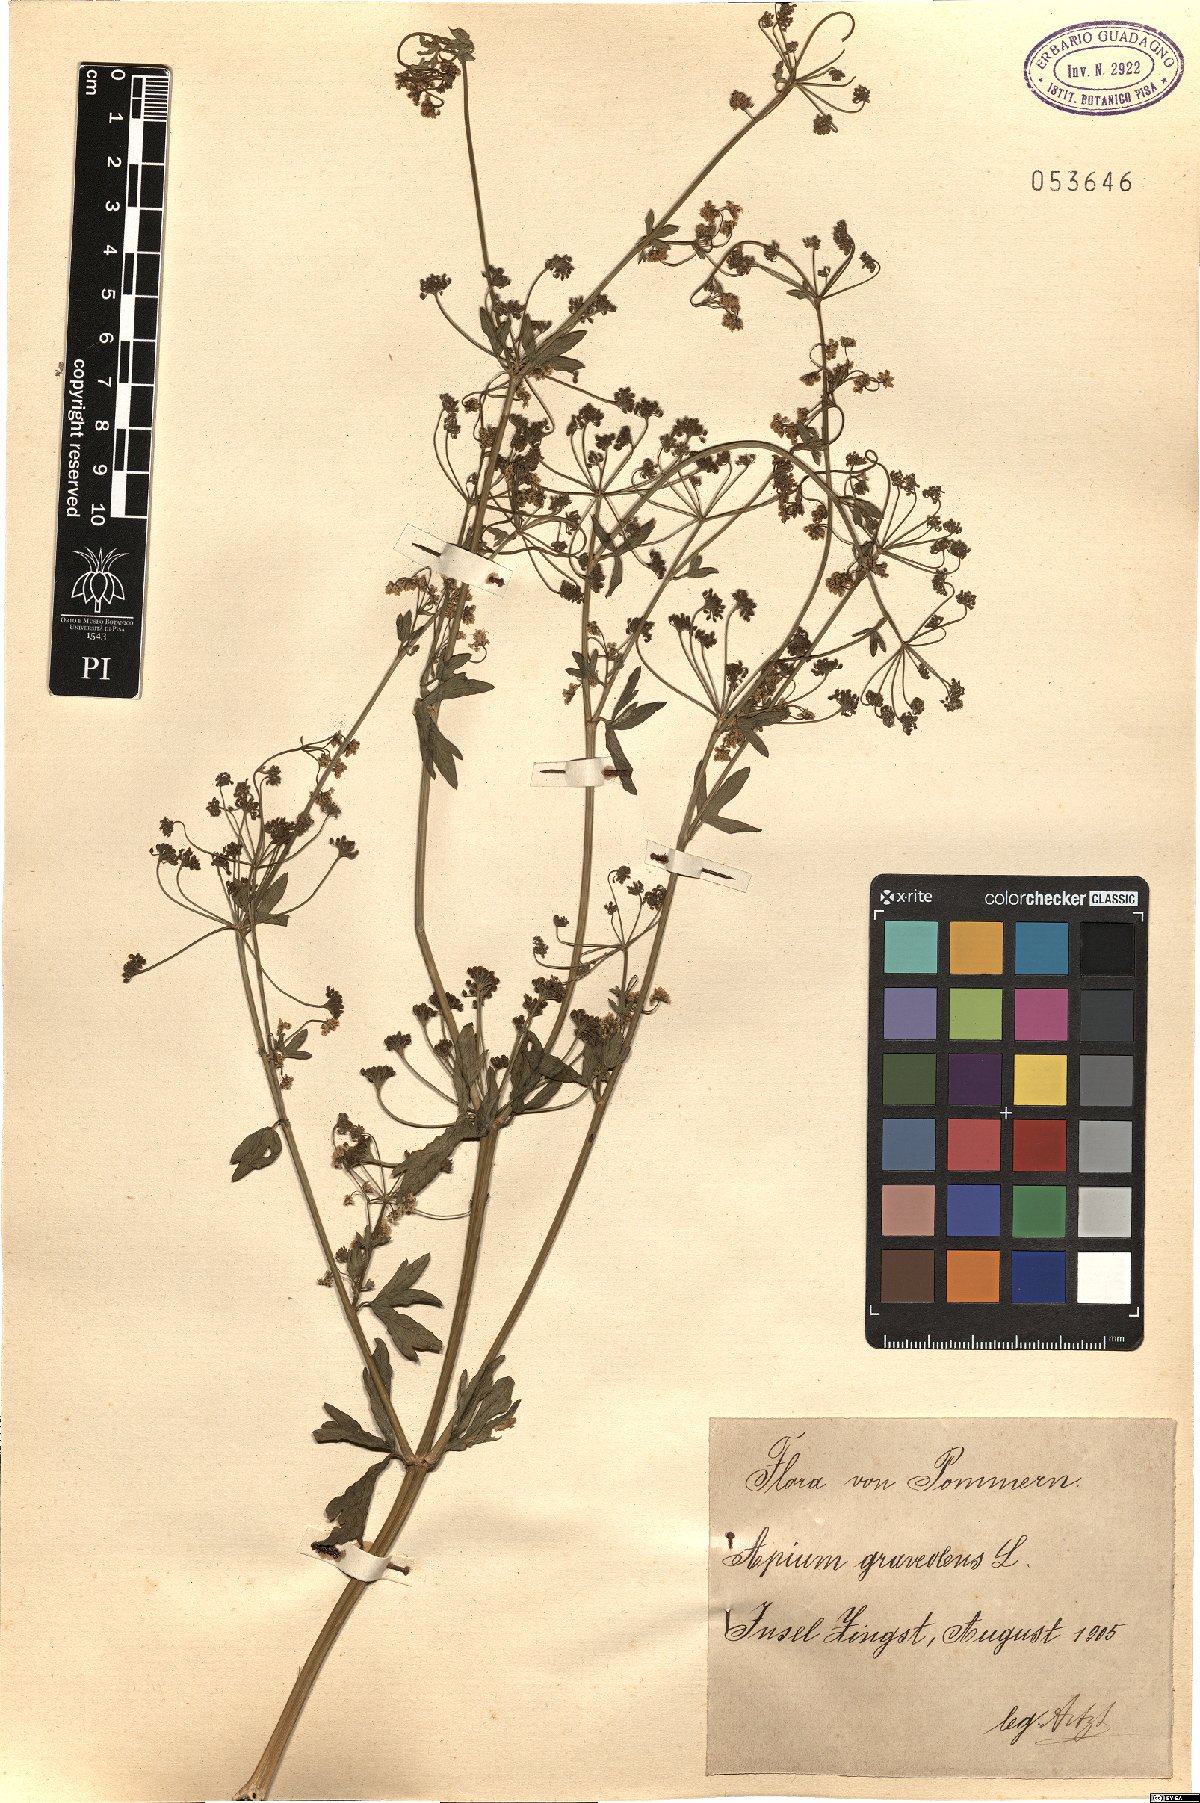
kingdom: Plantae
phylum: Tracheophyta
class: Magnoliopsida
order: Apiales
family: Apiaceae
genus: Apium
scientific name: Apium graveolens
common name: Wild celery
